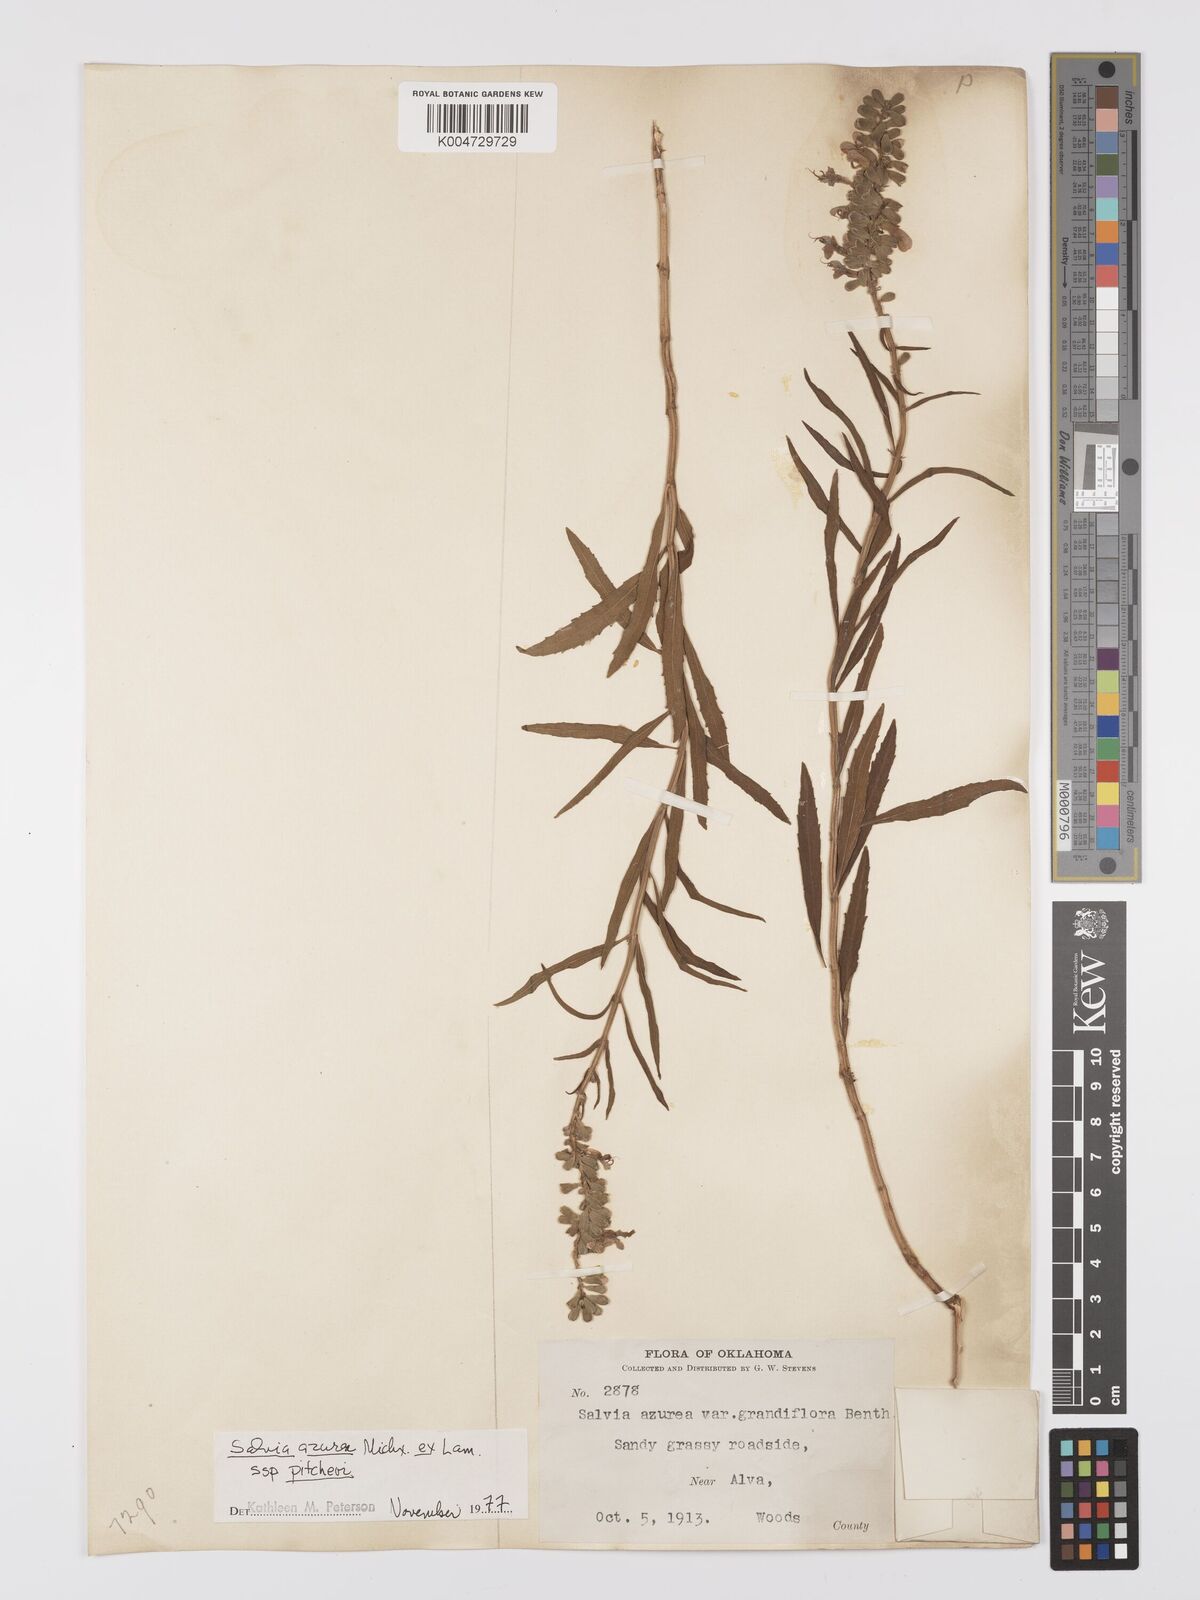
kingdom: Plantae
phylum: Tracheophyta
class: Magnoliopsida
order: Lamiales
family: Lamiaceae
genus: Salvia
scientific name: Salvia azurea
